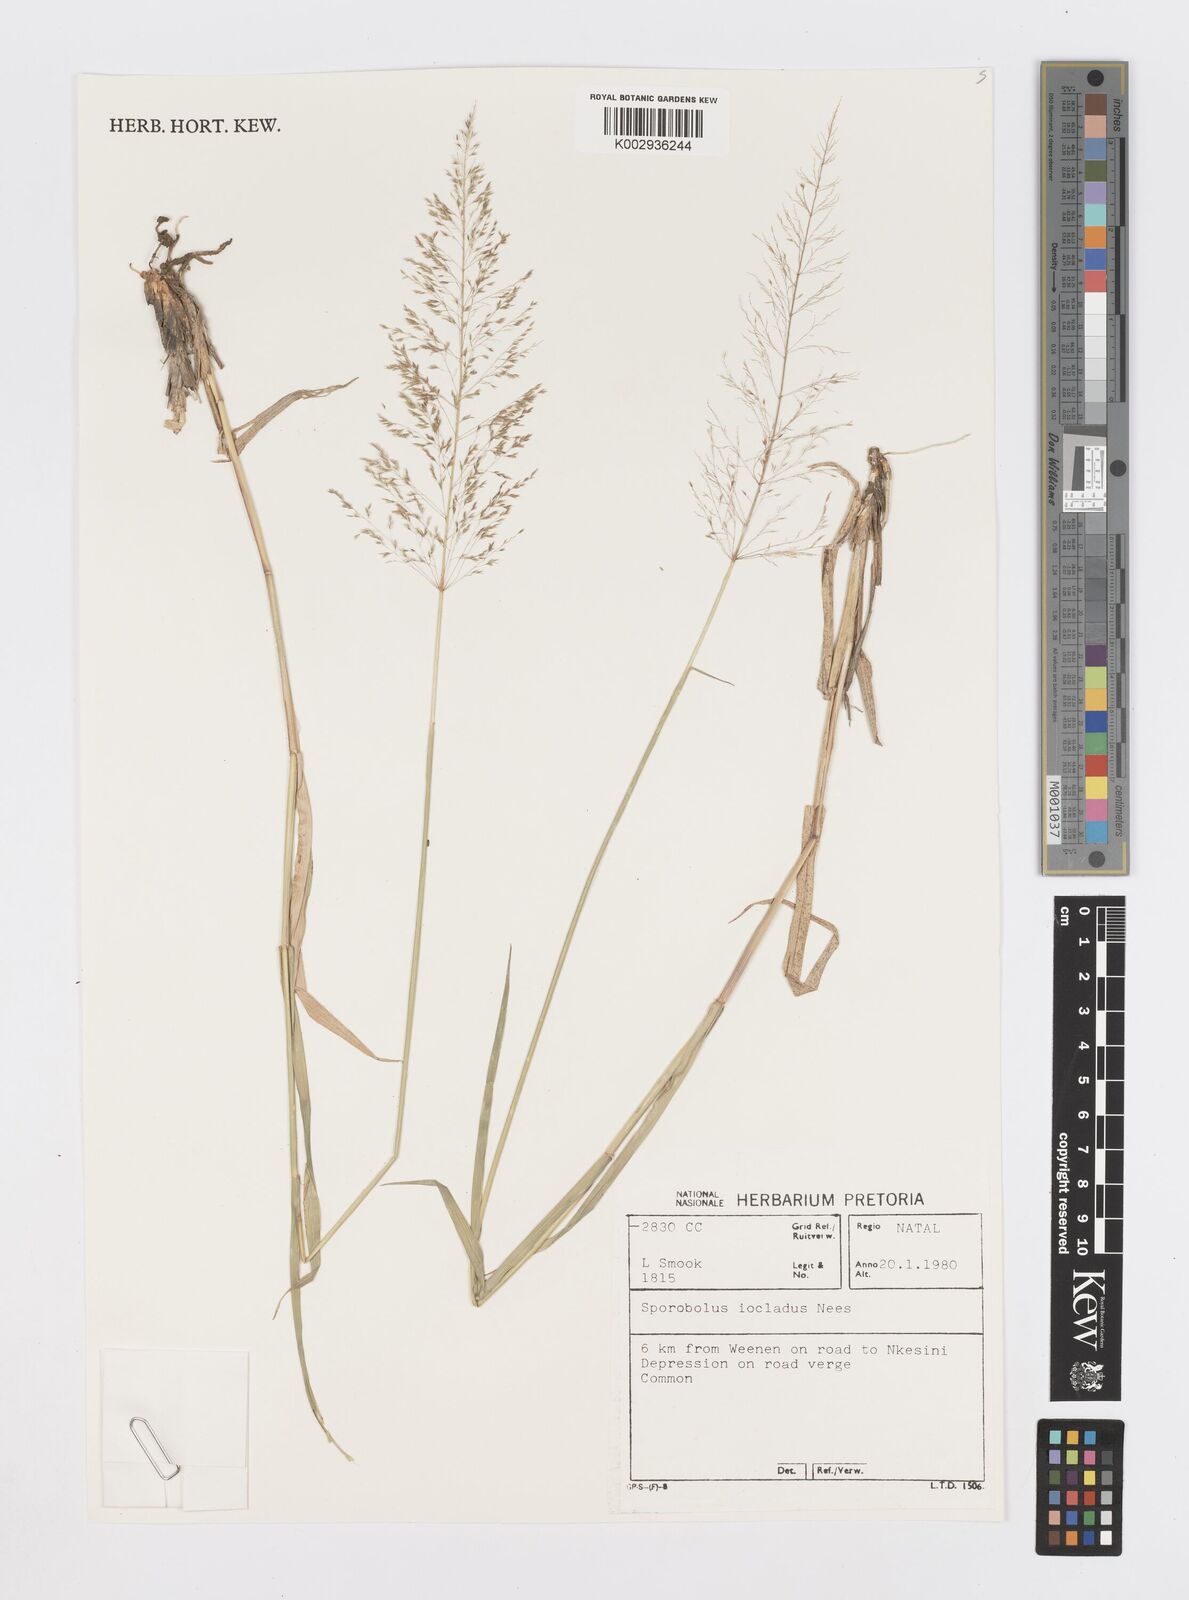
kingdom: Plantae
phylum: Tracheophyta
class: Liliopsida
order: Poales
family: Poaceae
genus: Sporobolus
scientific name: Sporobolus ioclados
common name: Pan dropseed
